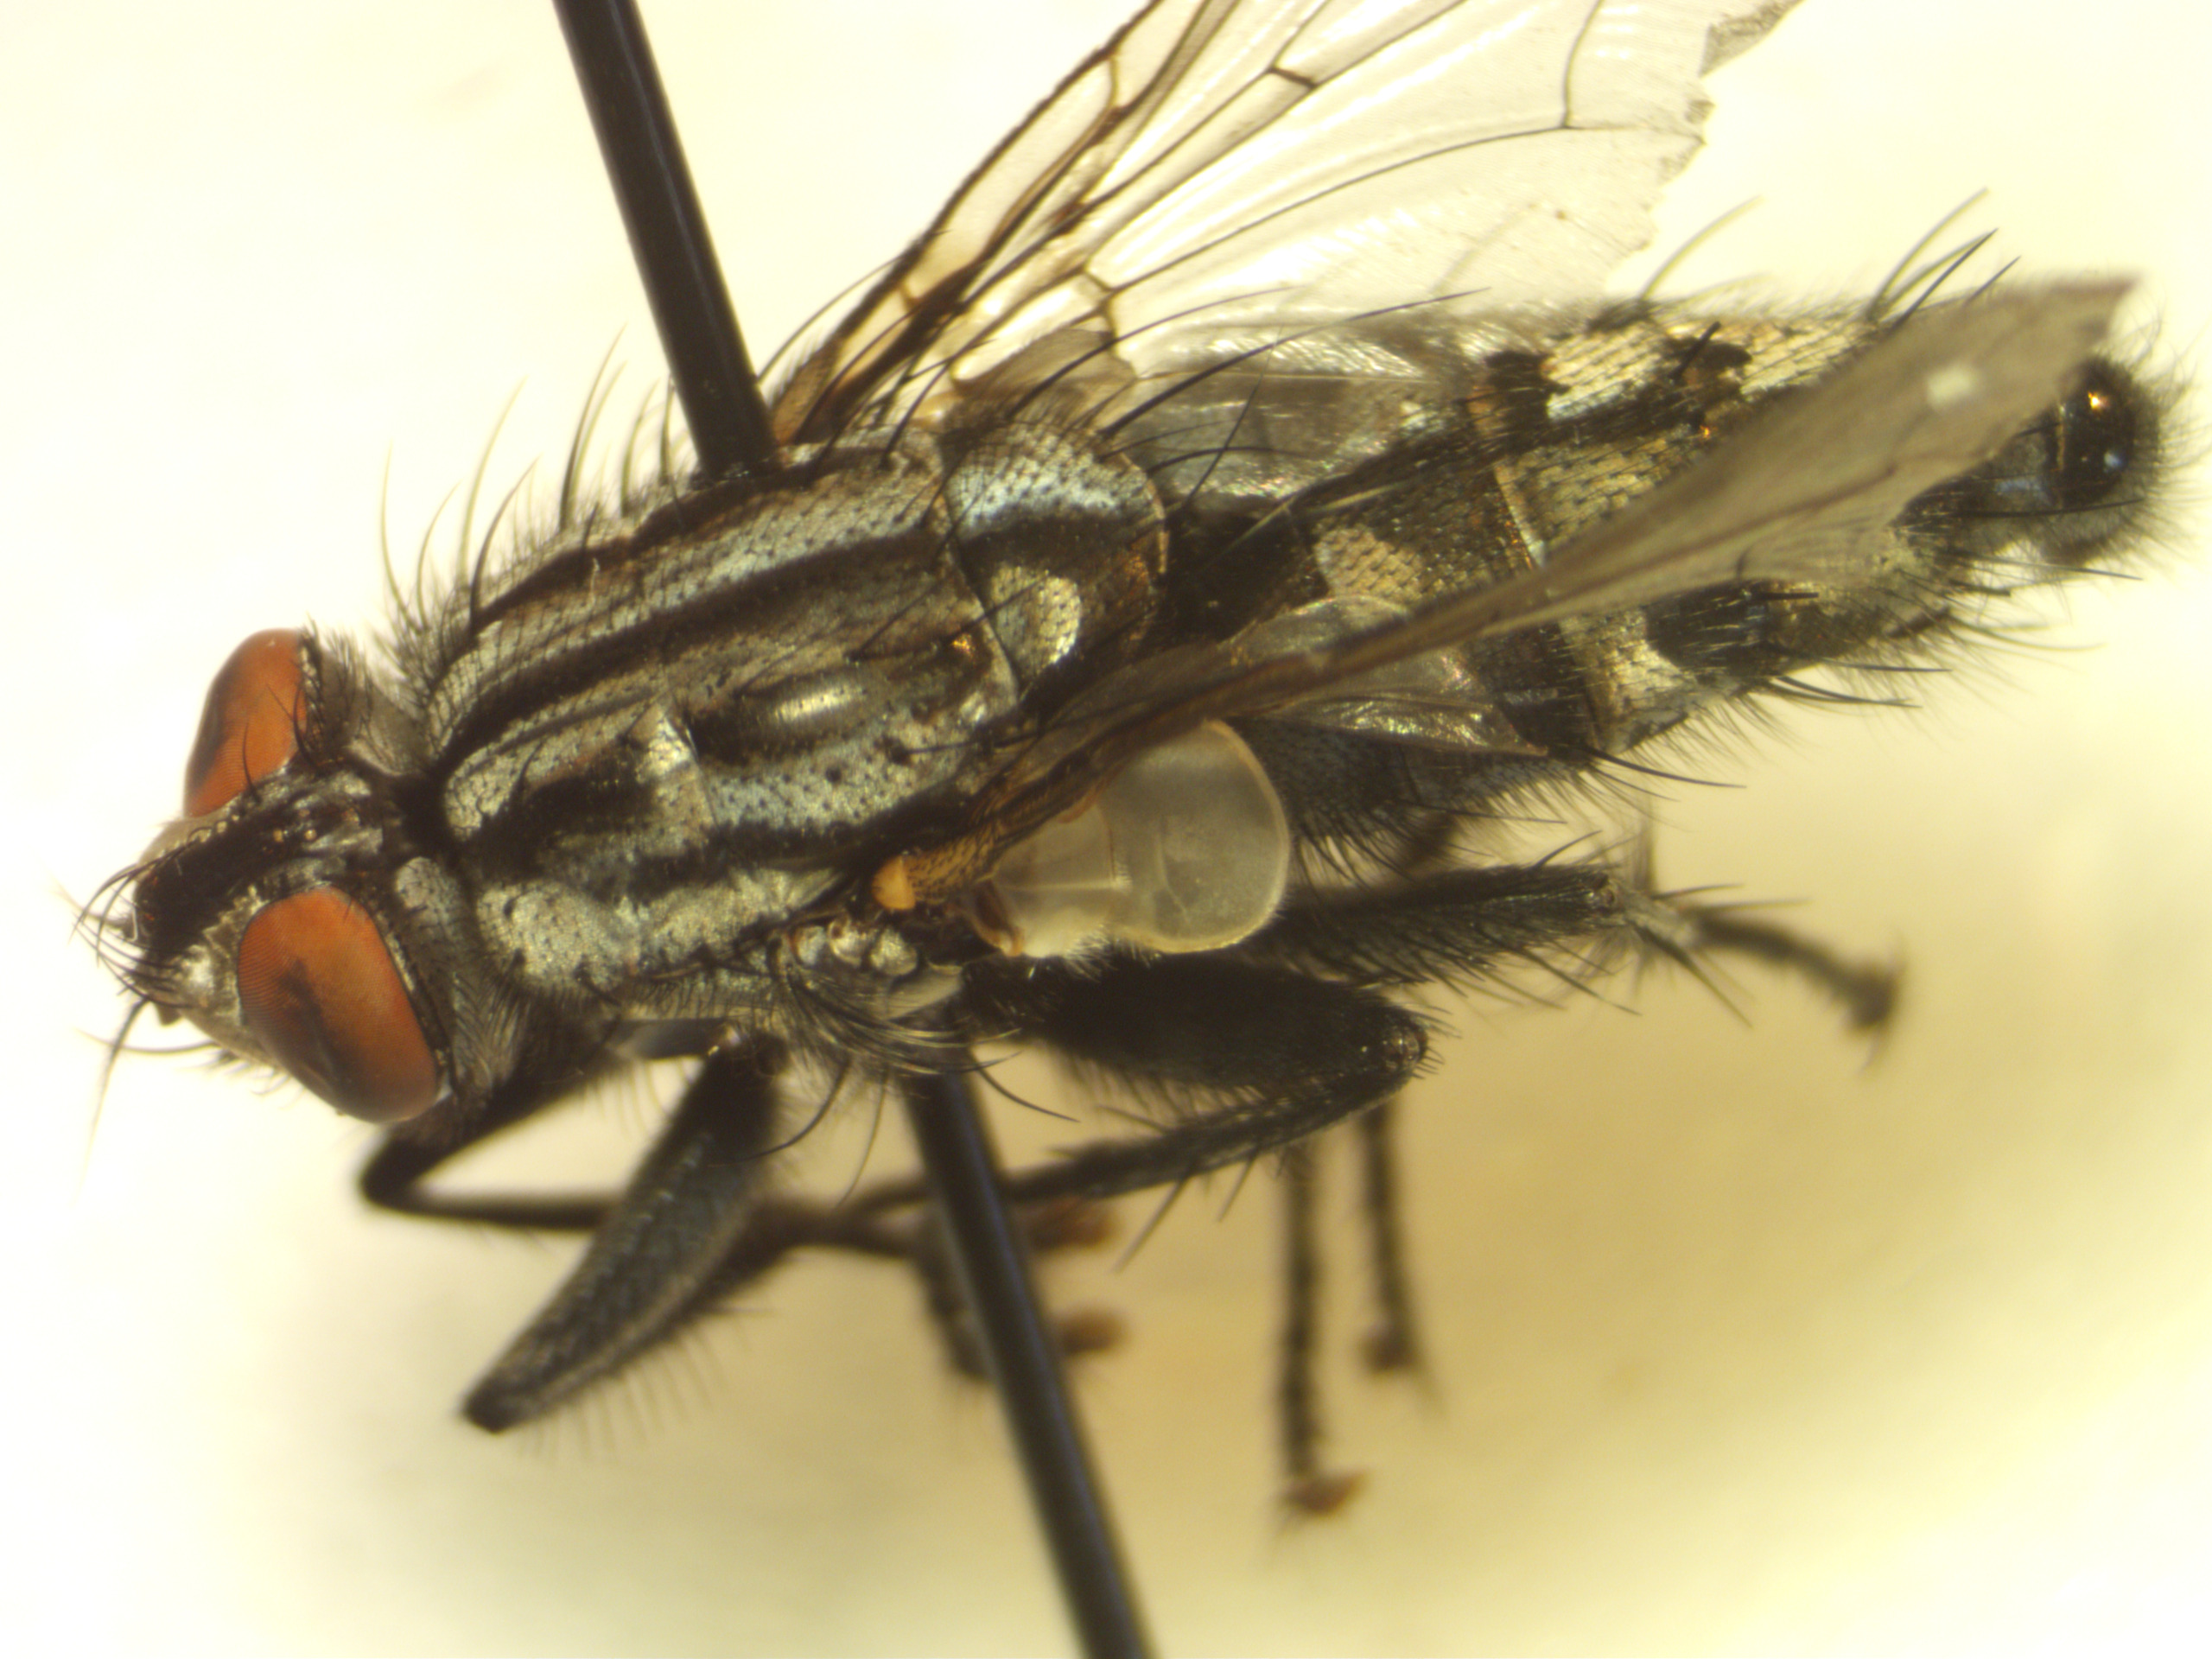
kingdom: Animalia
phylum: Arthropoda
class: Insecta
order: Diptera
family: Sarcophagidae
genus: Sarcophaga
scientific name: Sarcophaga incisilobata
